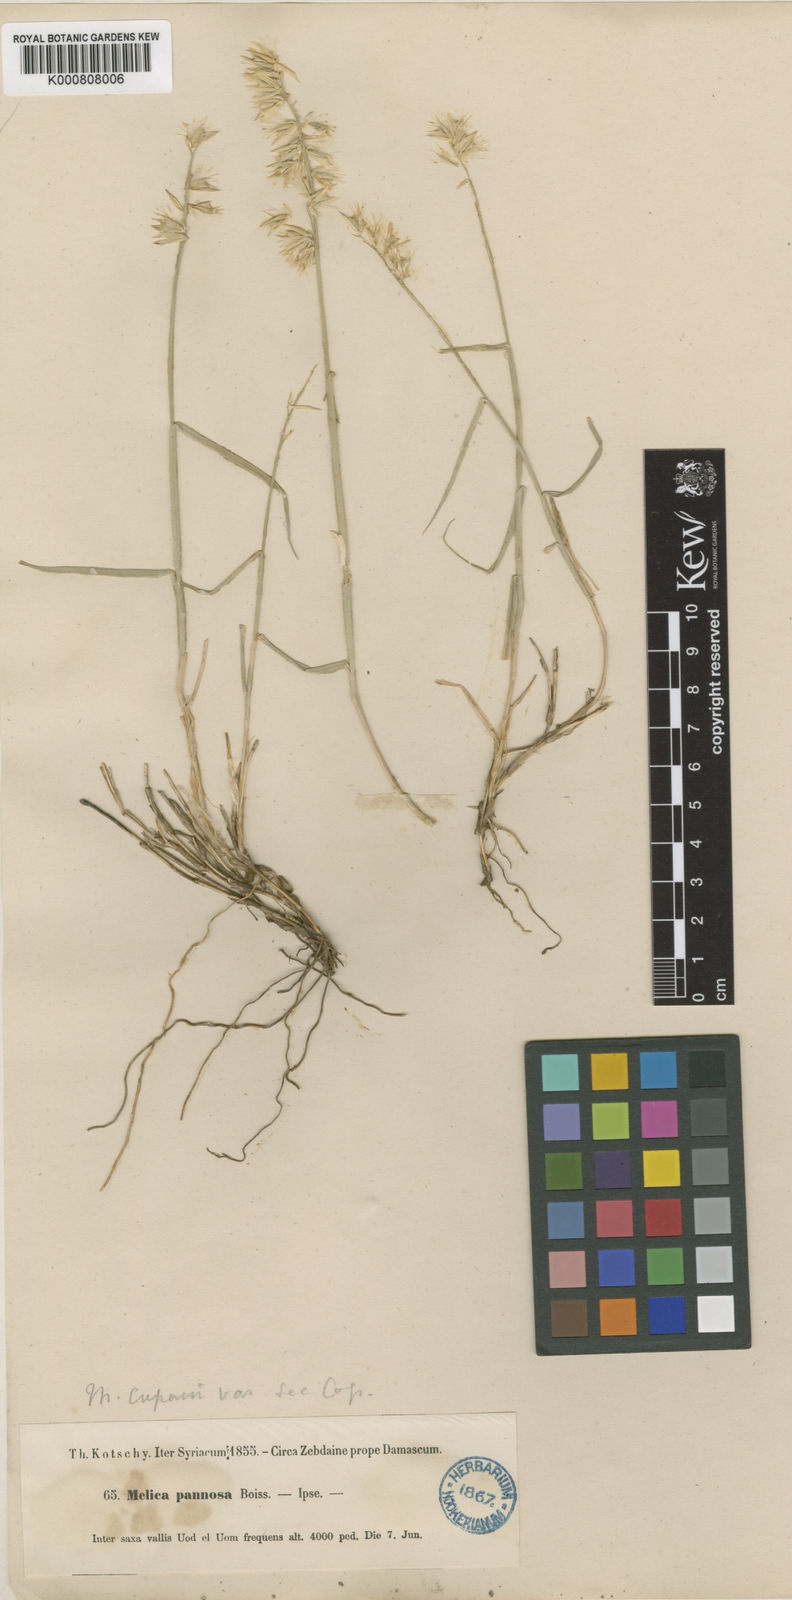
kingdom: Plantae
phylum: Tracheophyta
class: Liliopsida
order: Poales
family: Poaceae
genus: Melica
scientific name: Melica persica
